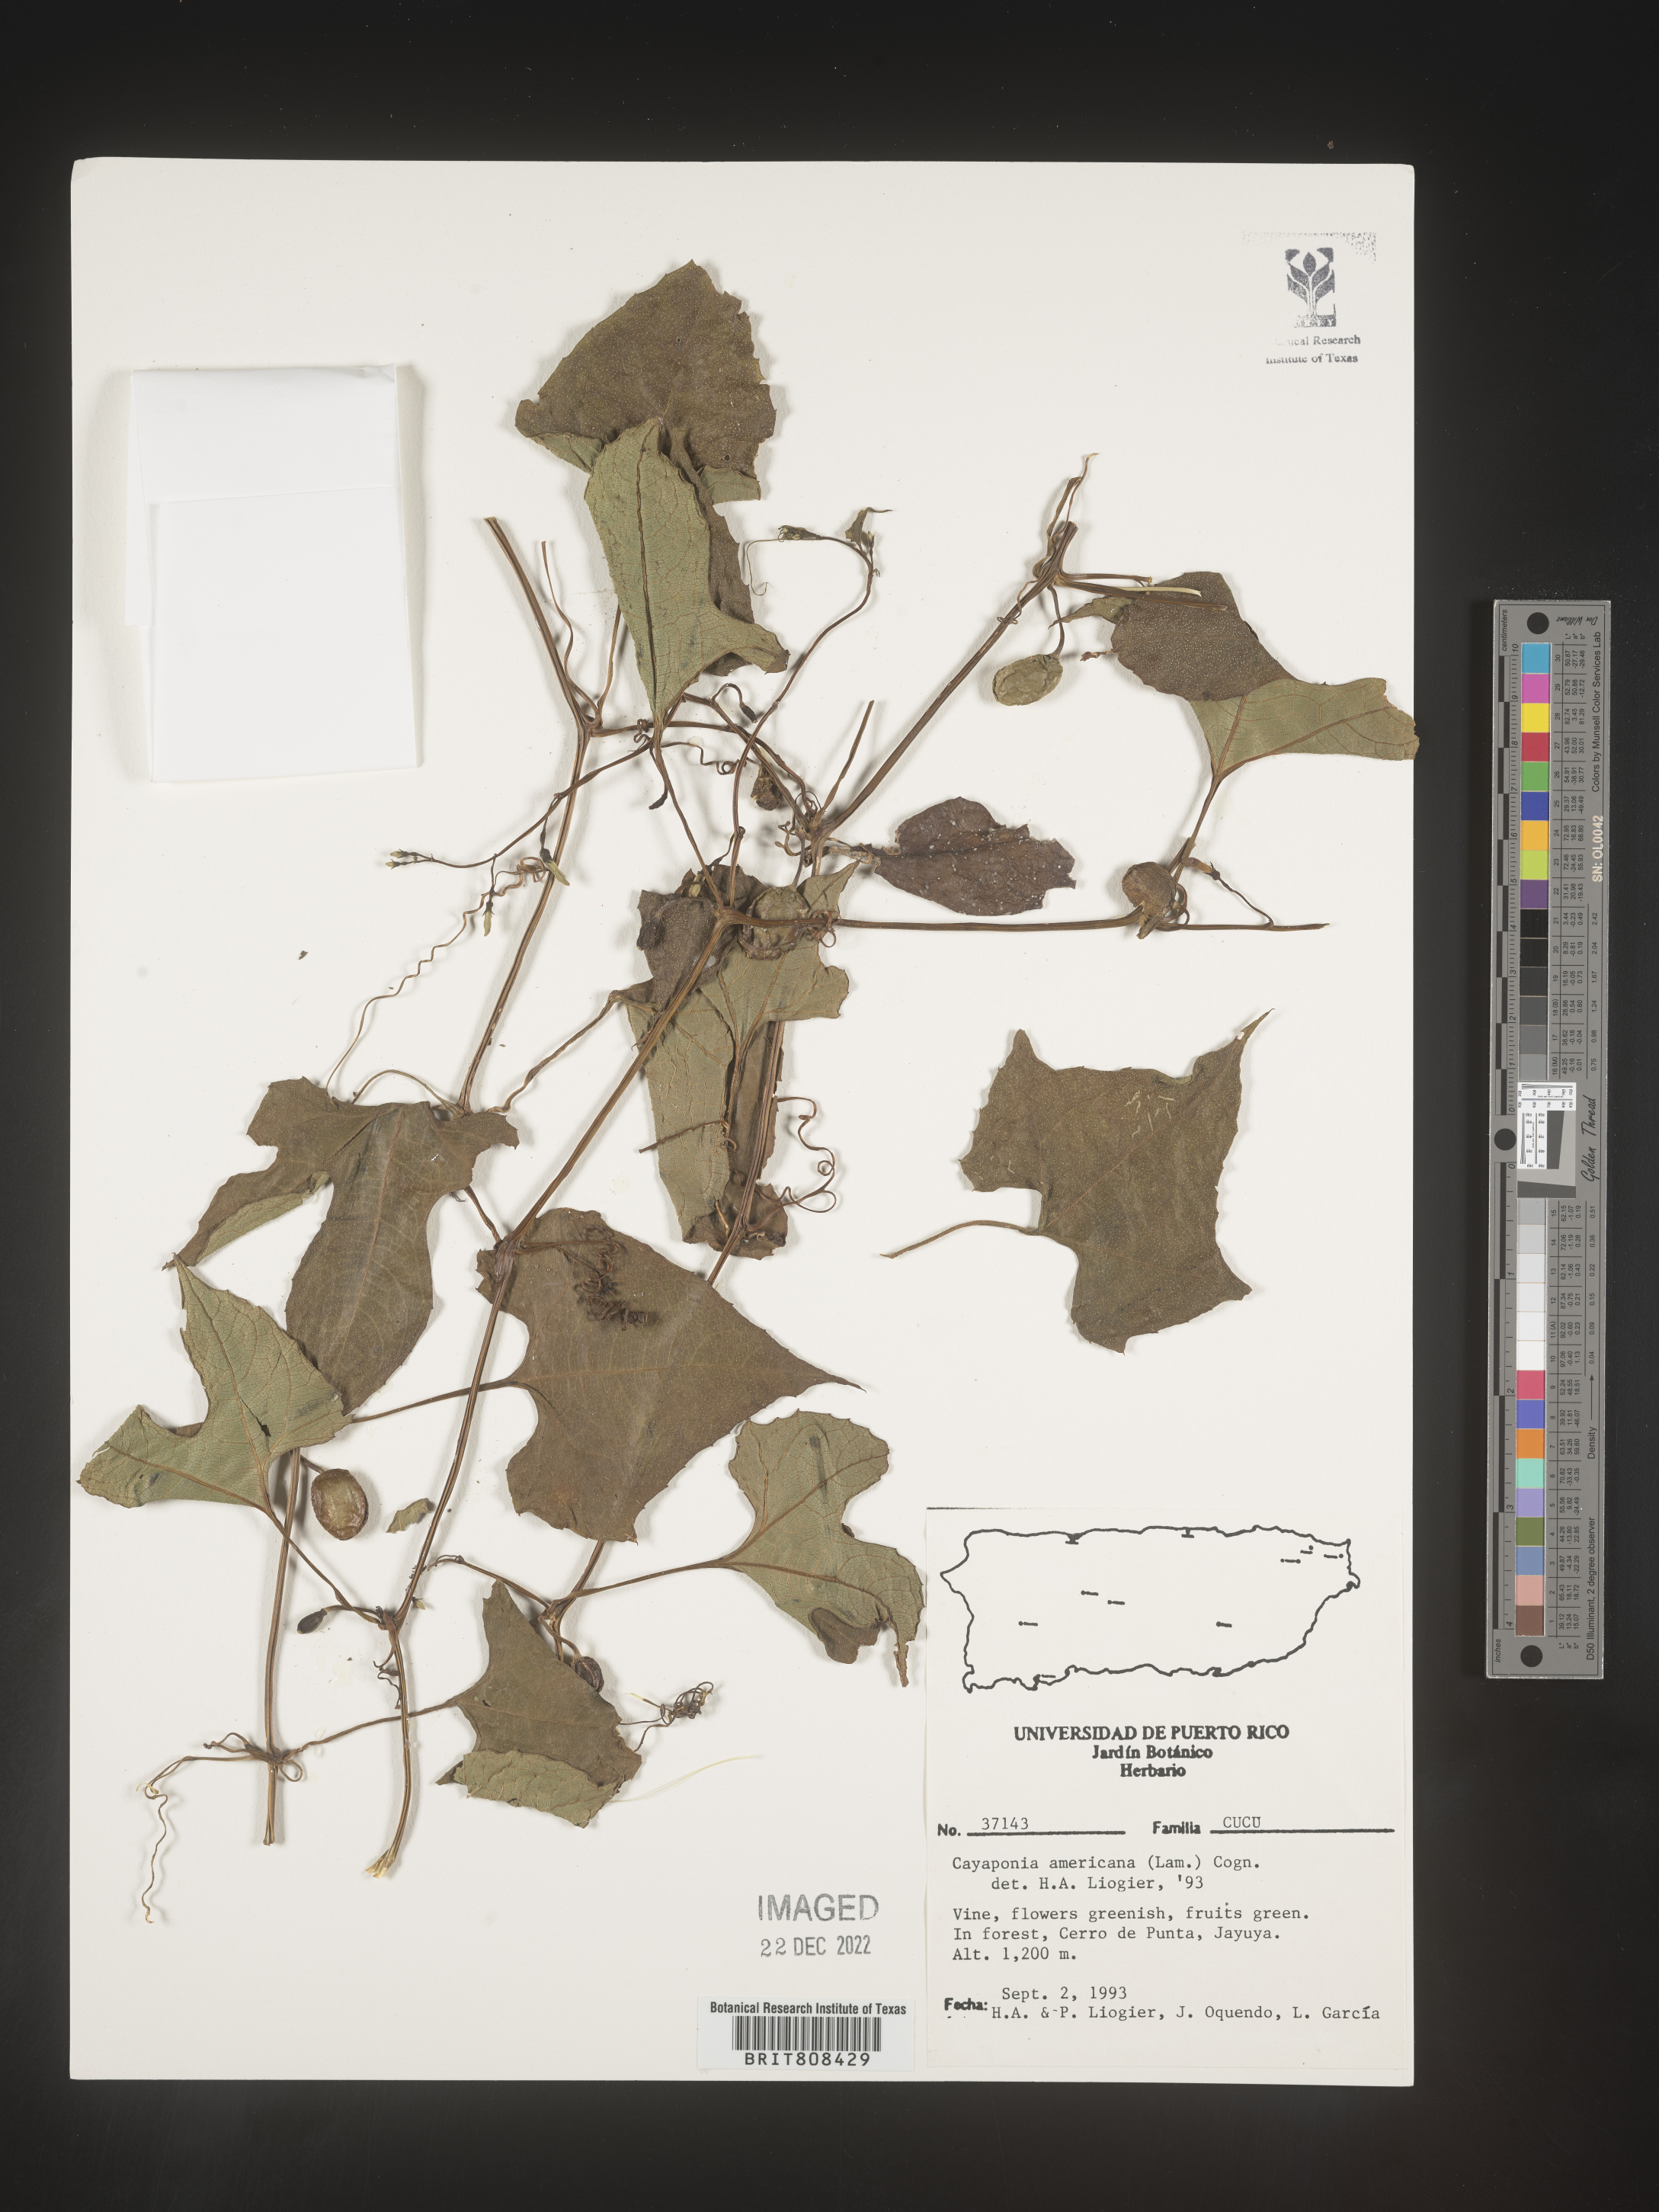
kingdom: Plantae
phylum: Tracheophyta
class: Magnoliopsida
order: Cucurbitales
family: Cucurbitaceae
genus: Cayaponia
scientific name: Cayaponia
